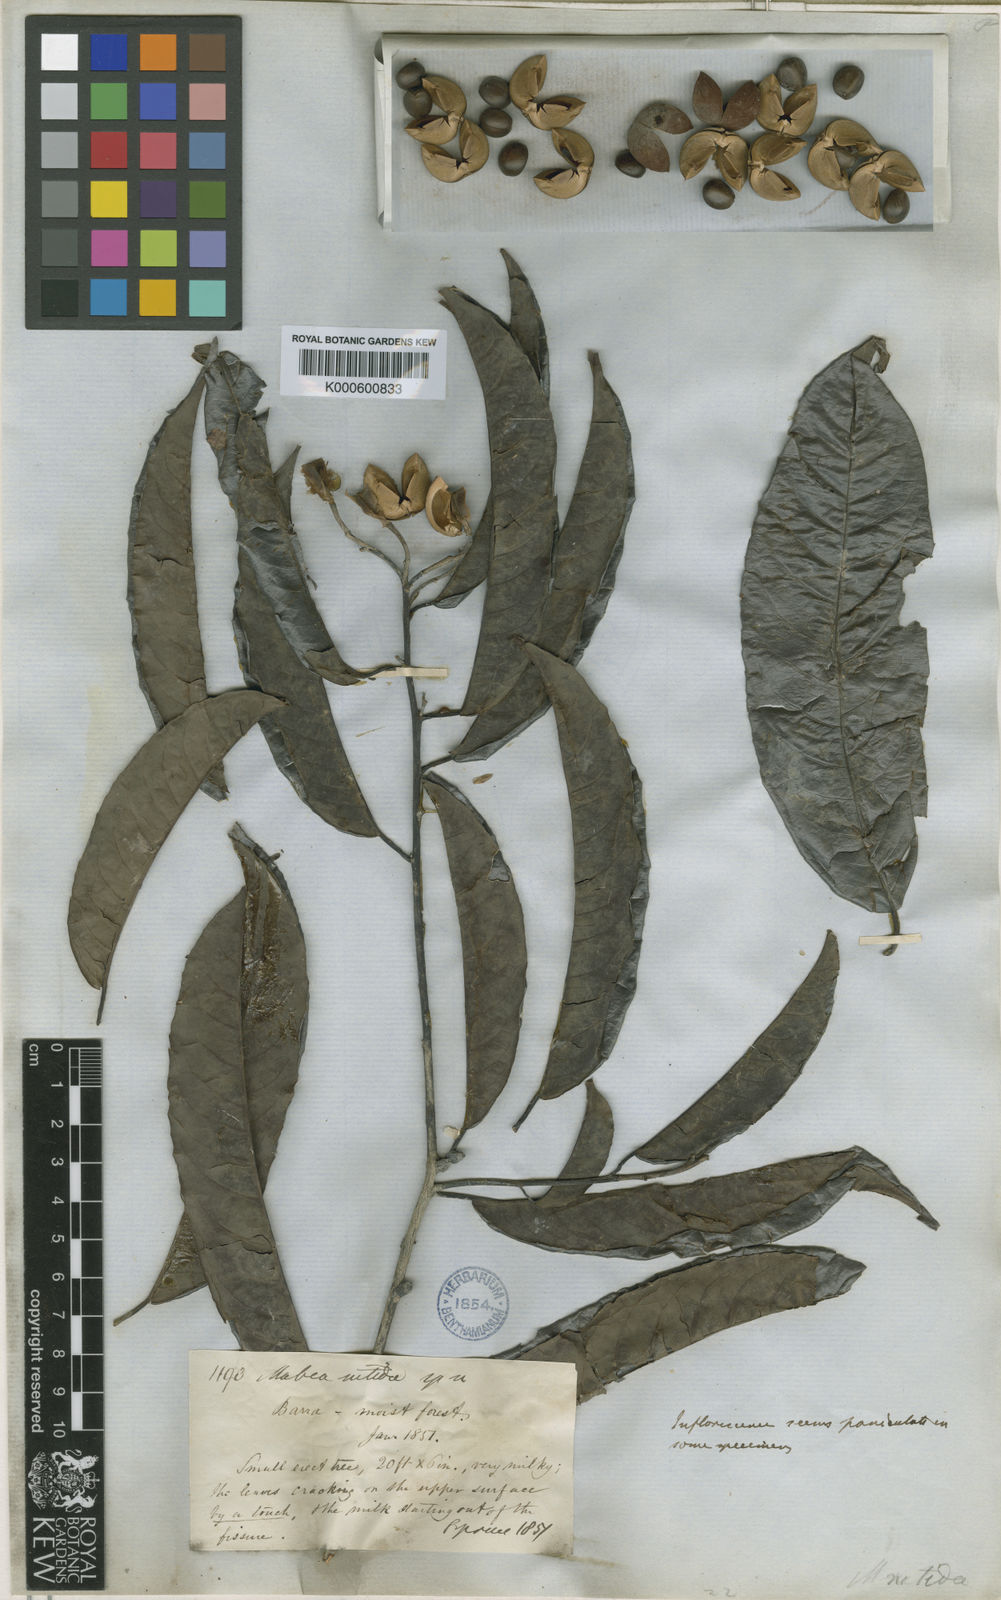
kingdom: Plantae
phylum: Tracheophyta
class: Magnoliopsida
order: Malpighiales
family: Euphorbiaceae
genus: Mabea
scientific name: Mabea nitida
